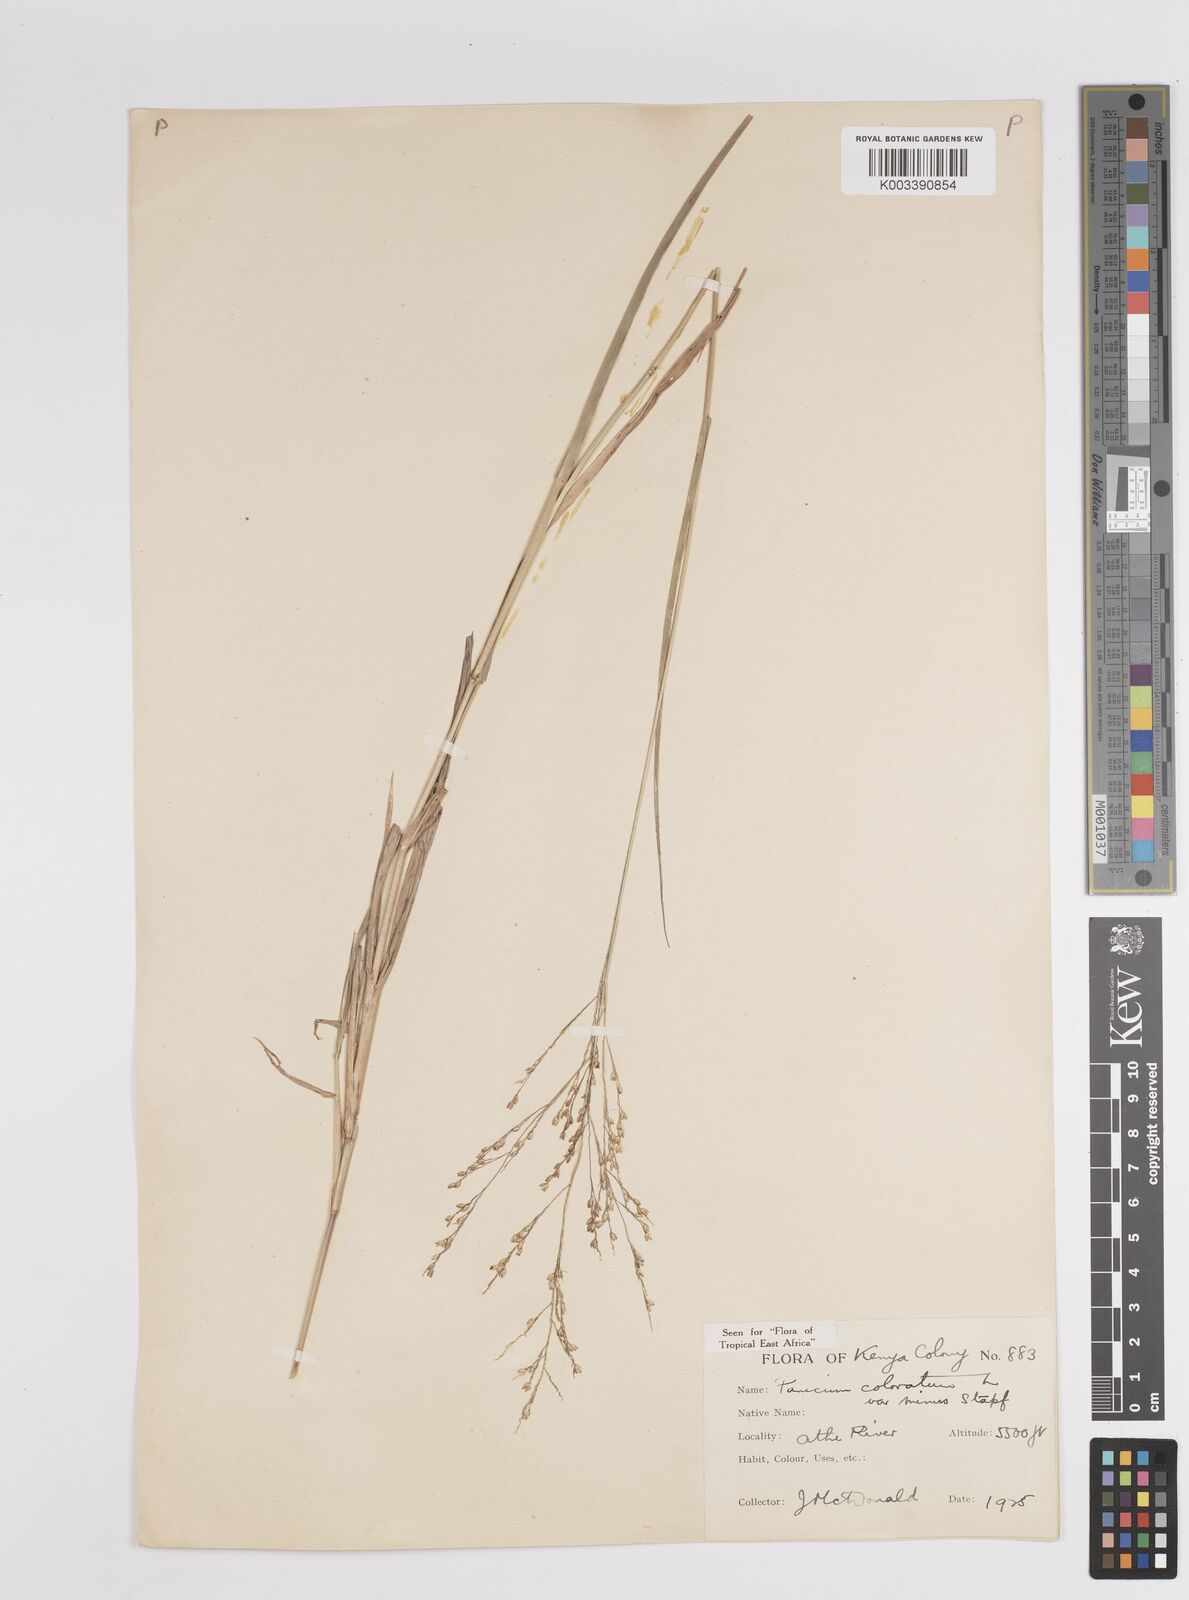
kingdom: Plantae
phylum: Tracheophyta
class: Liliopsida
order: Poales
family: Poaceae
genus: Panicum
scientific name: Panicum coloratum
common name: Kleingrass
